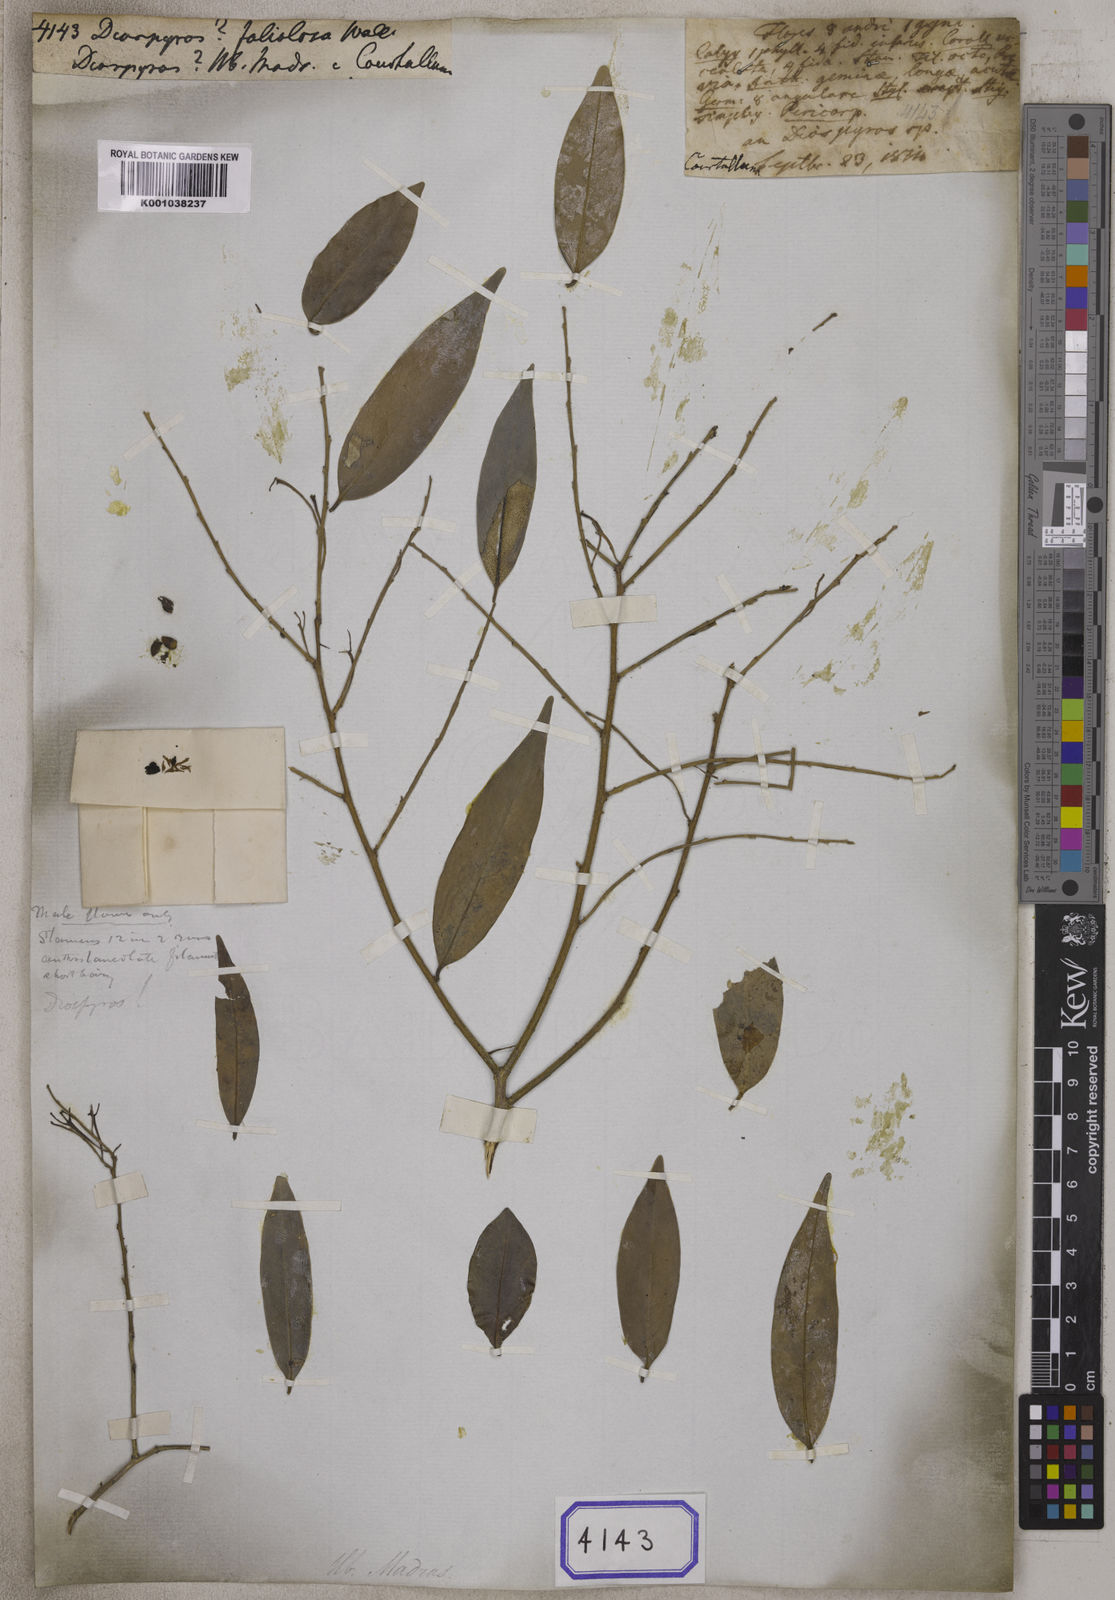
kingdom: Plantae
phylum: Tracheophyta
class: Magnoliopsida
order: Ericales
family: Ebenaceae
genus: Diospyros
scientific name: Diospyros
